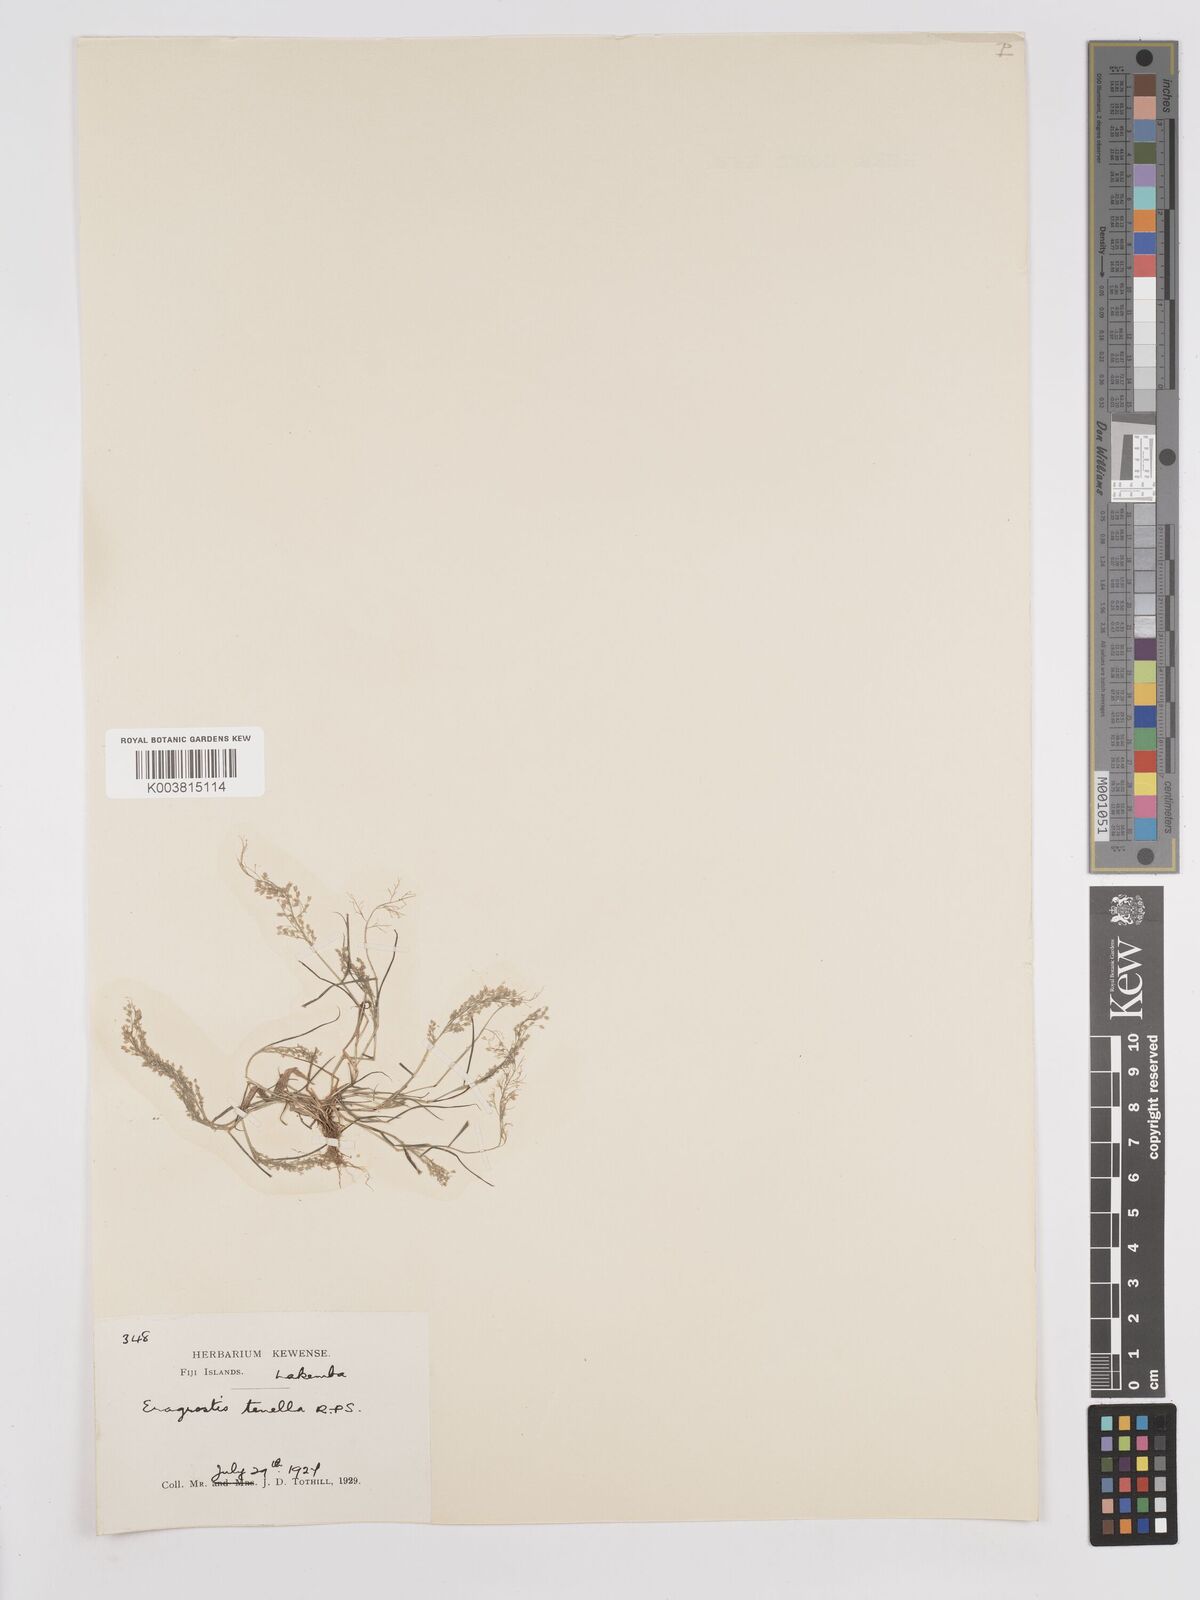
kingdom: Plantae
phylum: Tracheophyta
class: Liliopsida
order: Poales
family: Poaceae
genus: Eragrostis
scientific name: Eragrostis tenella
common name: Japanese lovegrass
